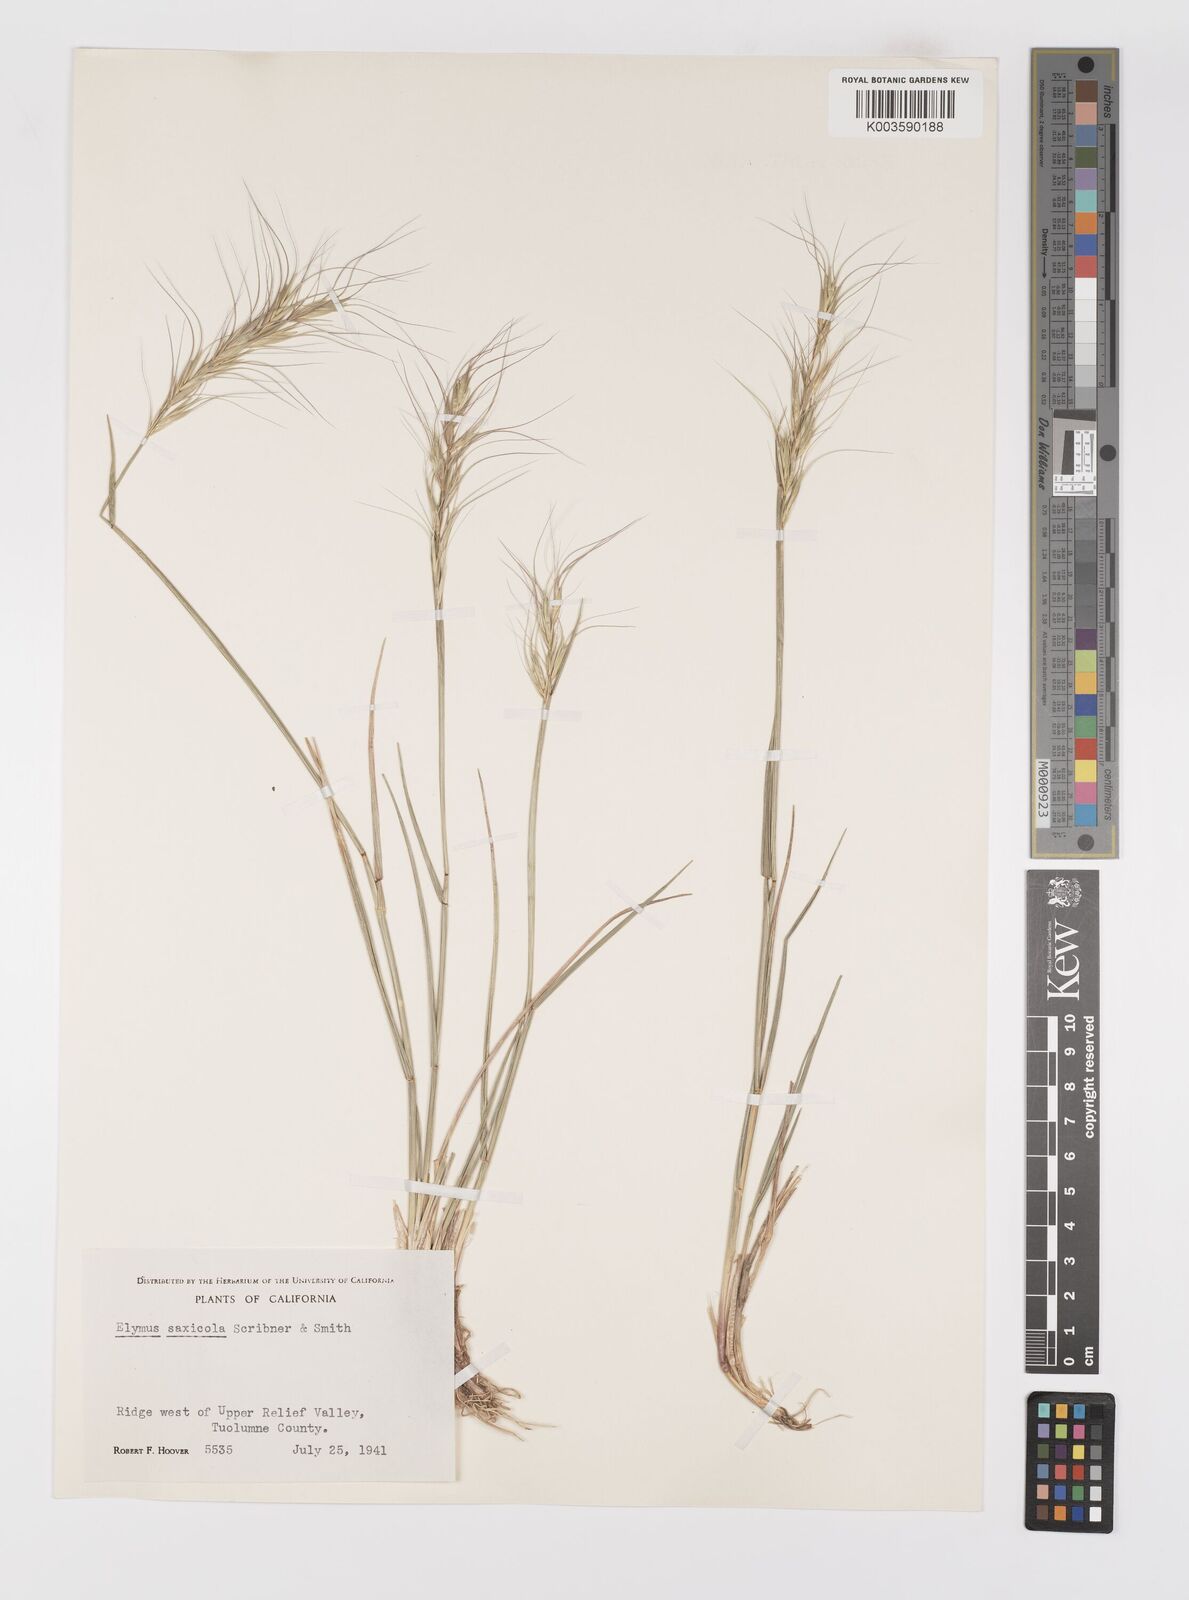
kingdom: Plantae
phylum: Tracheophyta
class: Liliopsida
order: Poales
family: Poaceae
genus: Pseudoroegneria
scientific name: Pseudoroegneria spicata
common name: Bluebunch wheatgrass
